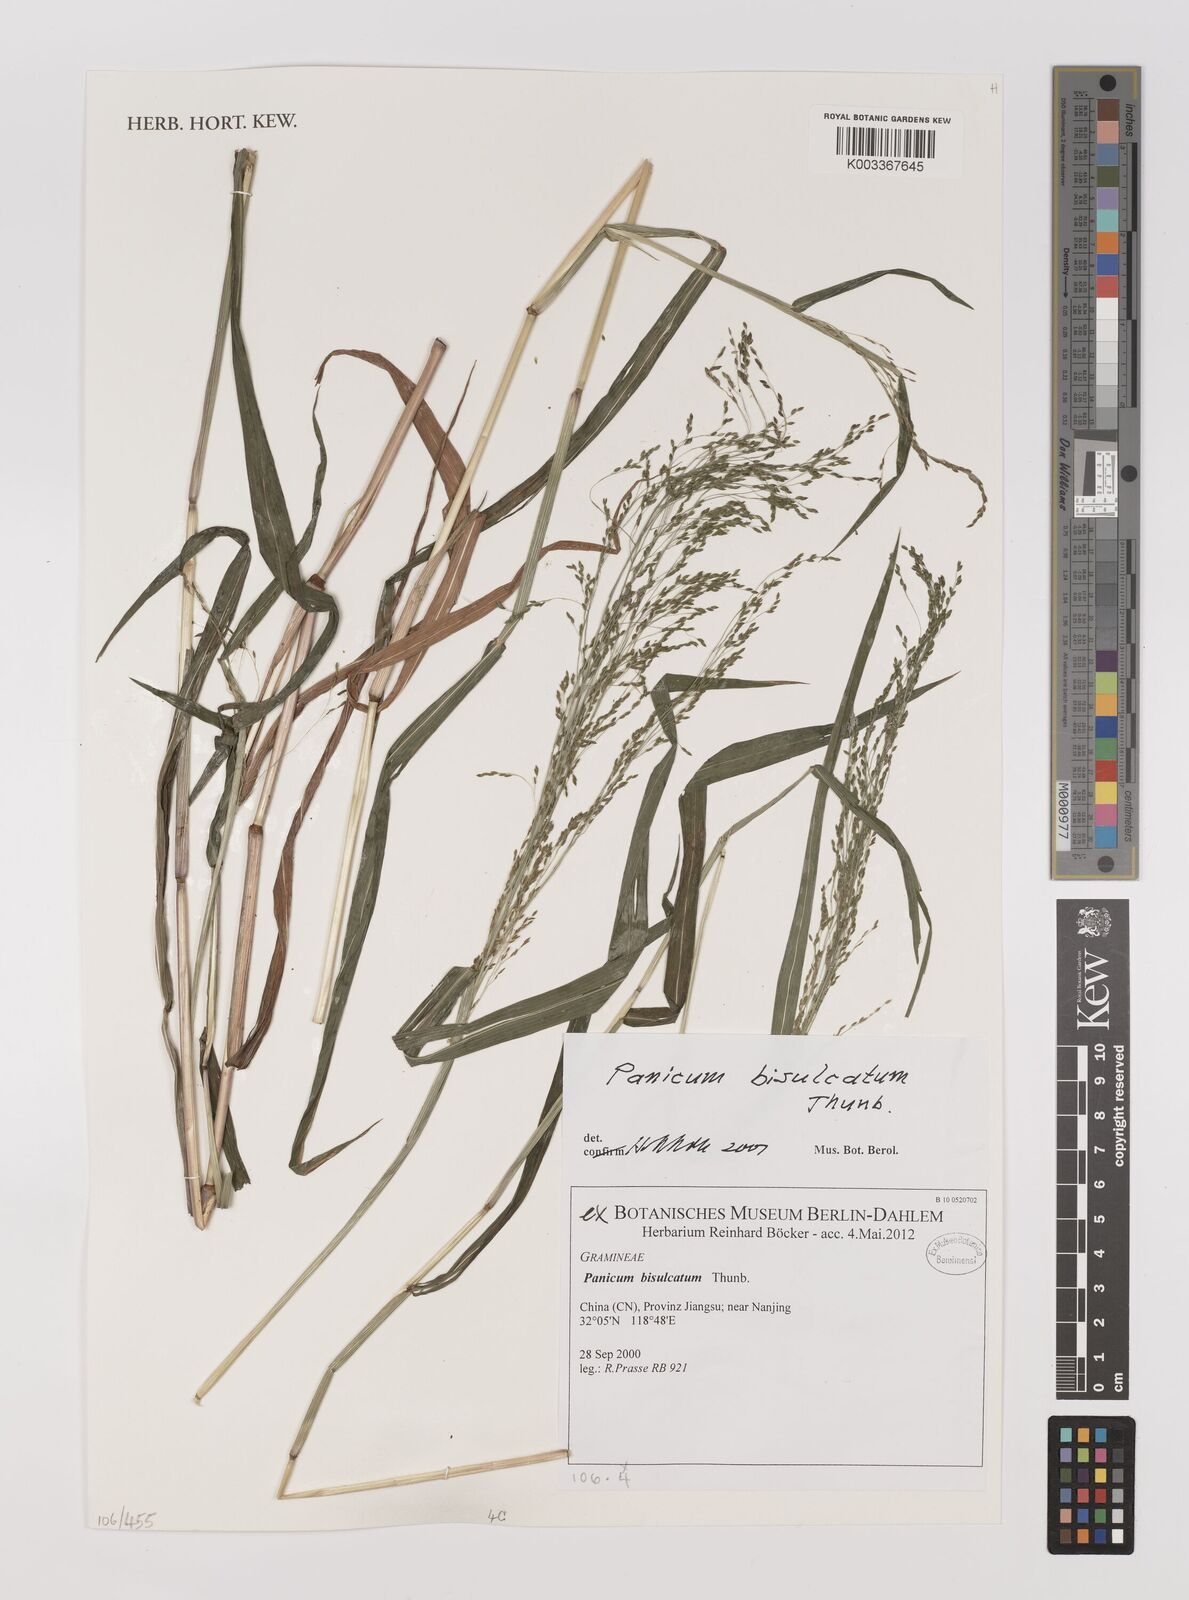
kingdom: Plantae
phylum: Tracheophyta
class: Liliopsida
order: Poales
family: Poaceae
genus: Panicum
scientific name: Panicum bisulcatum
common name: Japanese panicgrass
